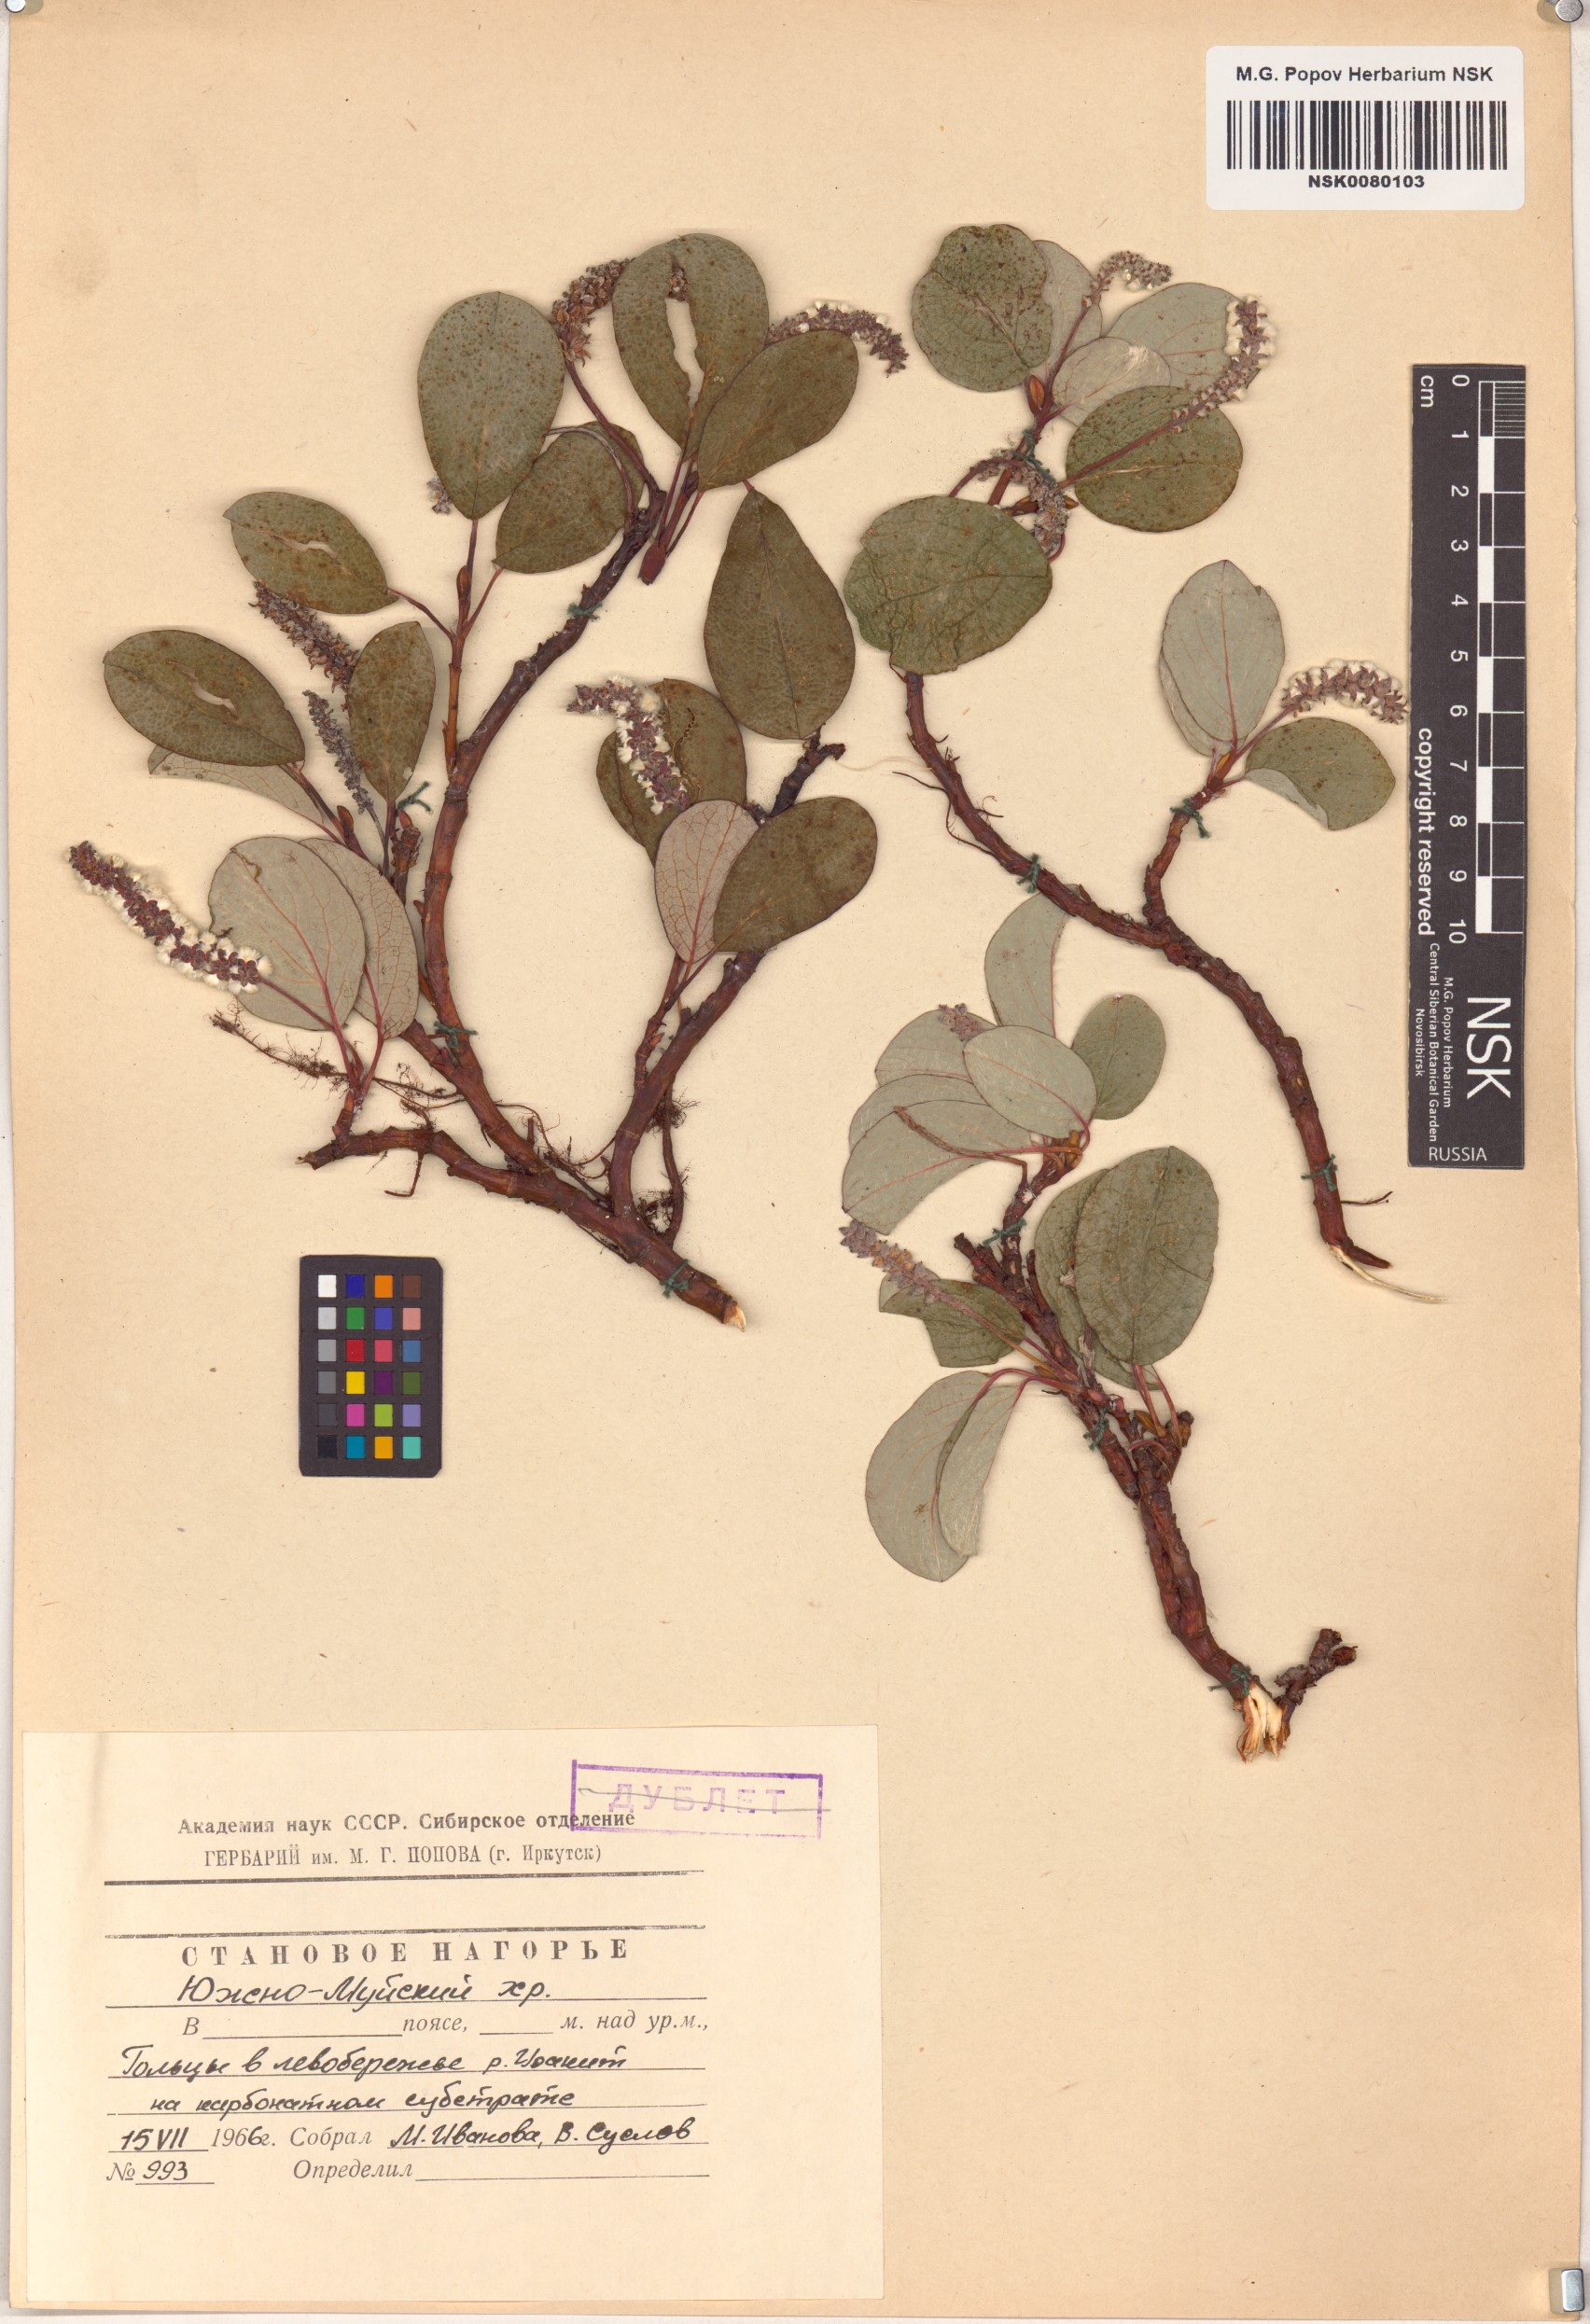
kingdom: Plantae
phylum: Tracheophyta
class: Magnoliopsida
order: Malpighiales
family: Salicaceae
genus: Salix
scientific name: Salix reticulata
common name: Net-leaved willow
